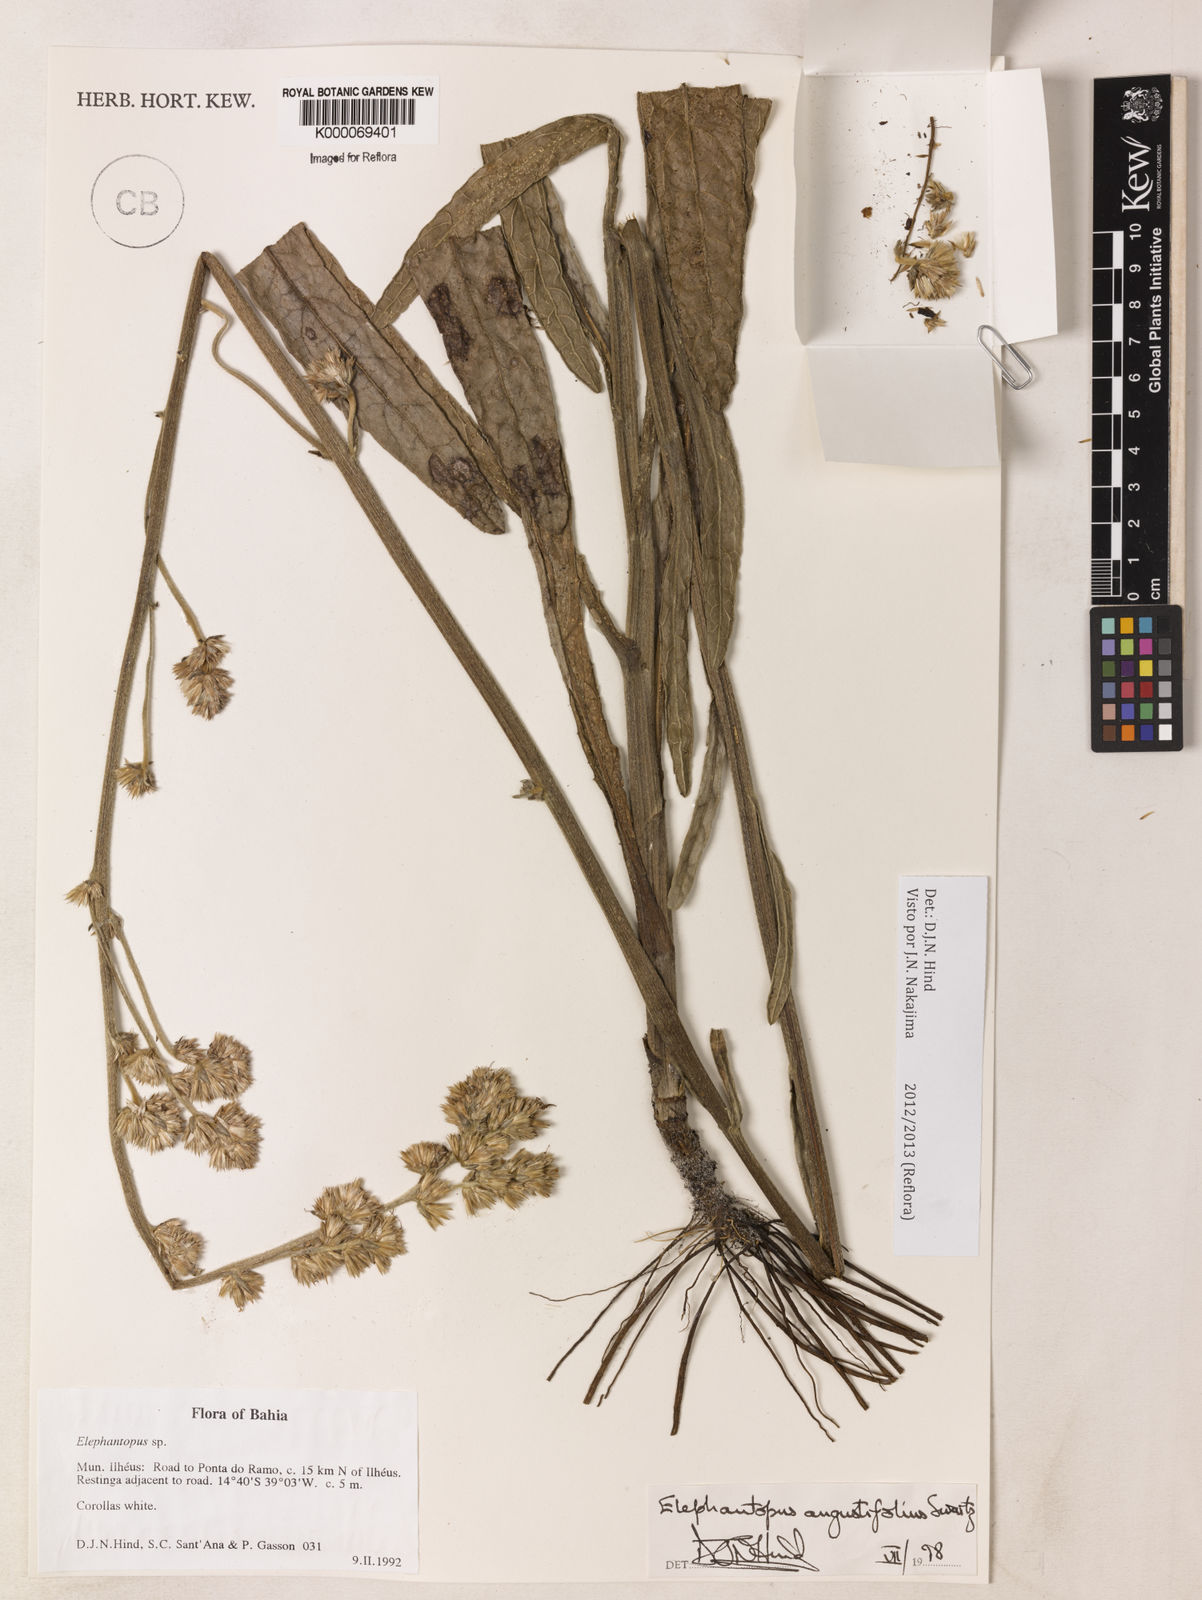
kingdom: Plantae
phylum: Tracheophyta
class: Magnoliopsida
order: Asterales
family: Asteraceae
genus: Orthopappus
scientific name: Orthopappus angustifolius
